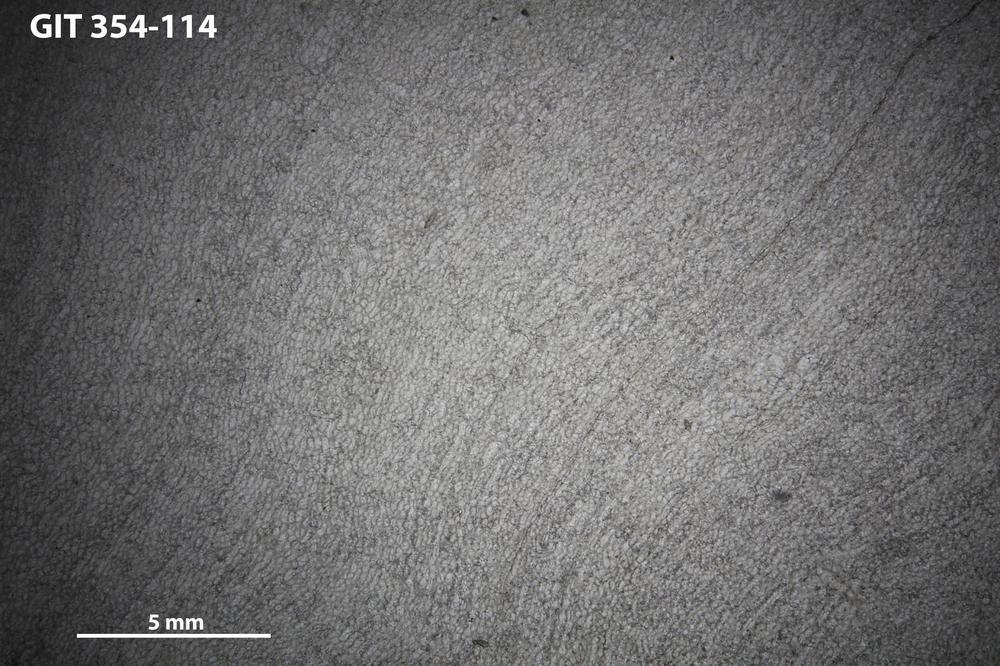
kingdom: Animalia
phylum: Porifera
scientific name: Porifera
